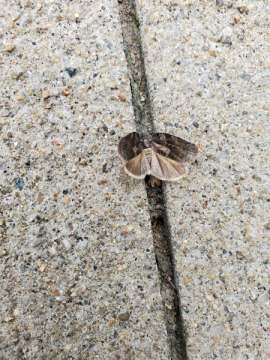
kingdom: Animalia
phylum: Arthropoda
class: Insecta
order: Lepidoptera
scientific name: Lepidoptera
